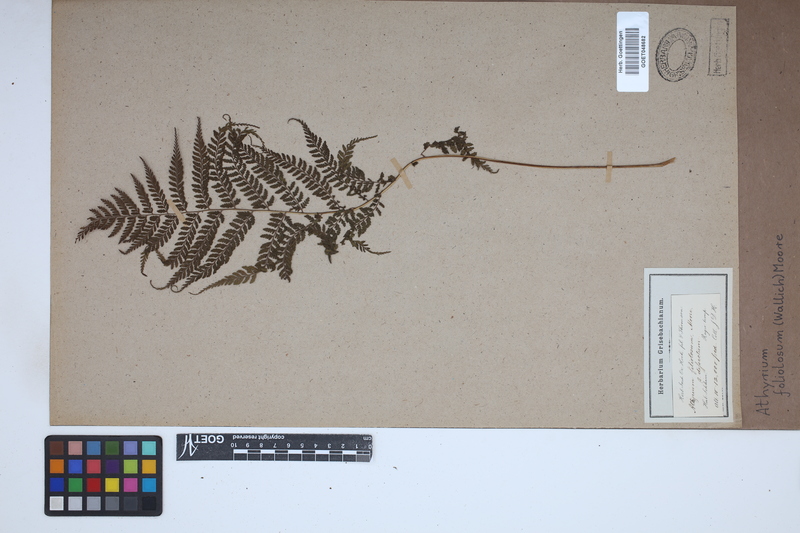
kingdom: Plantae
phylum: Tracheophyta
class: Polypodiopsida
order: Polypodiales
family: Athyriaceae
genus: Athyrium
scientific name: Athyrium foliolosum
